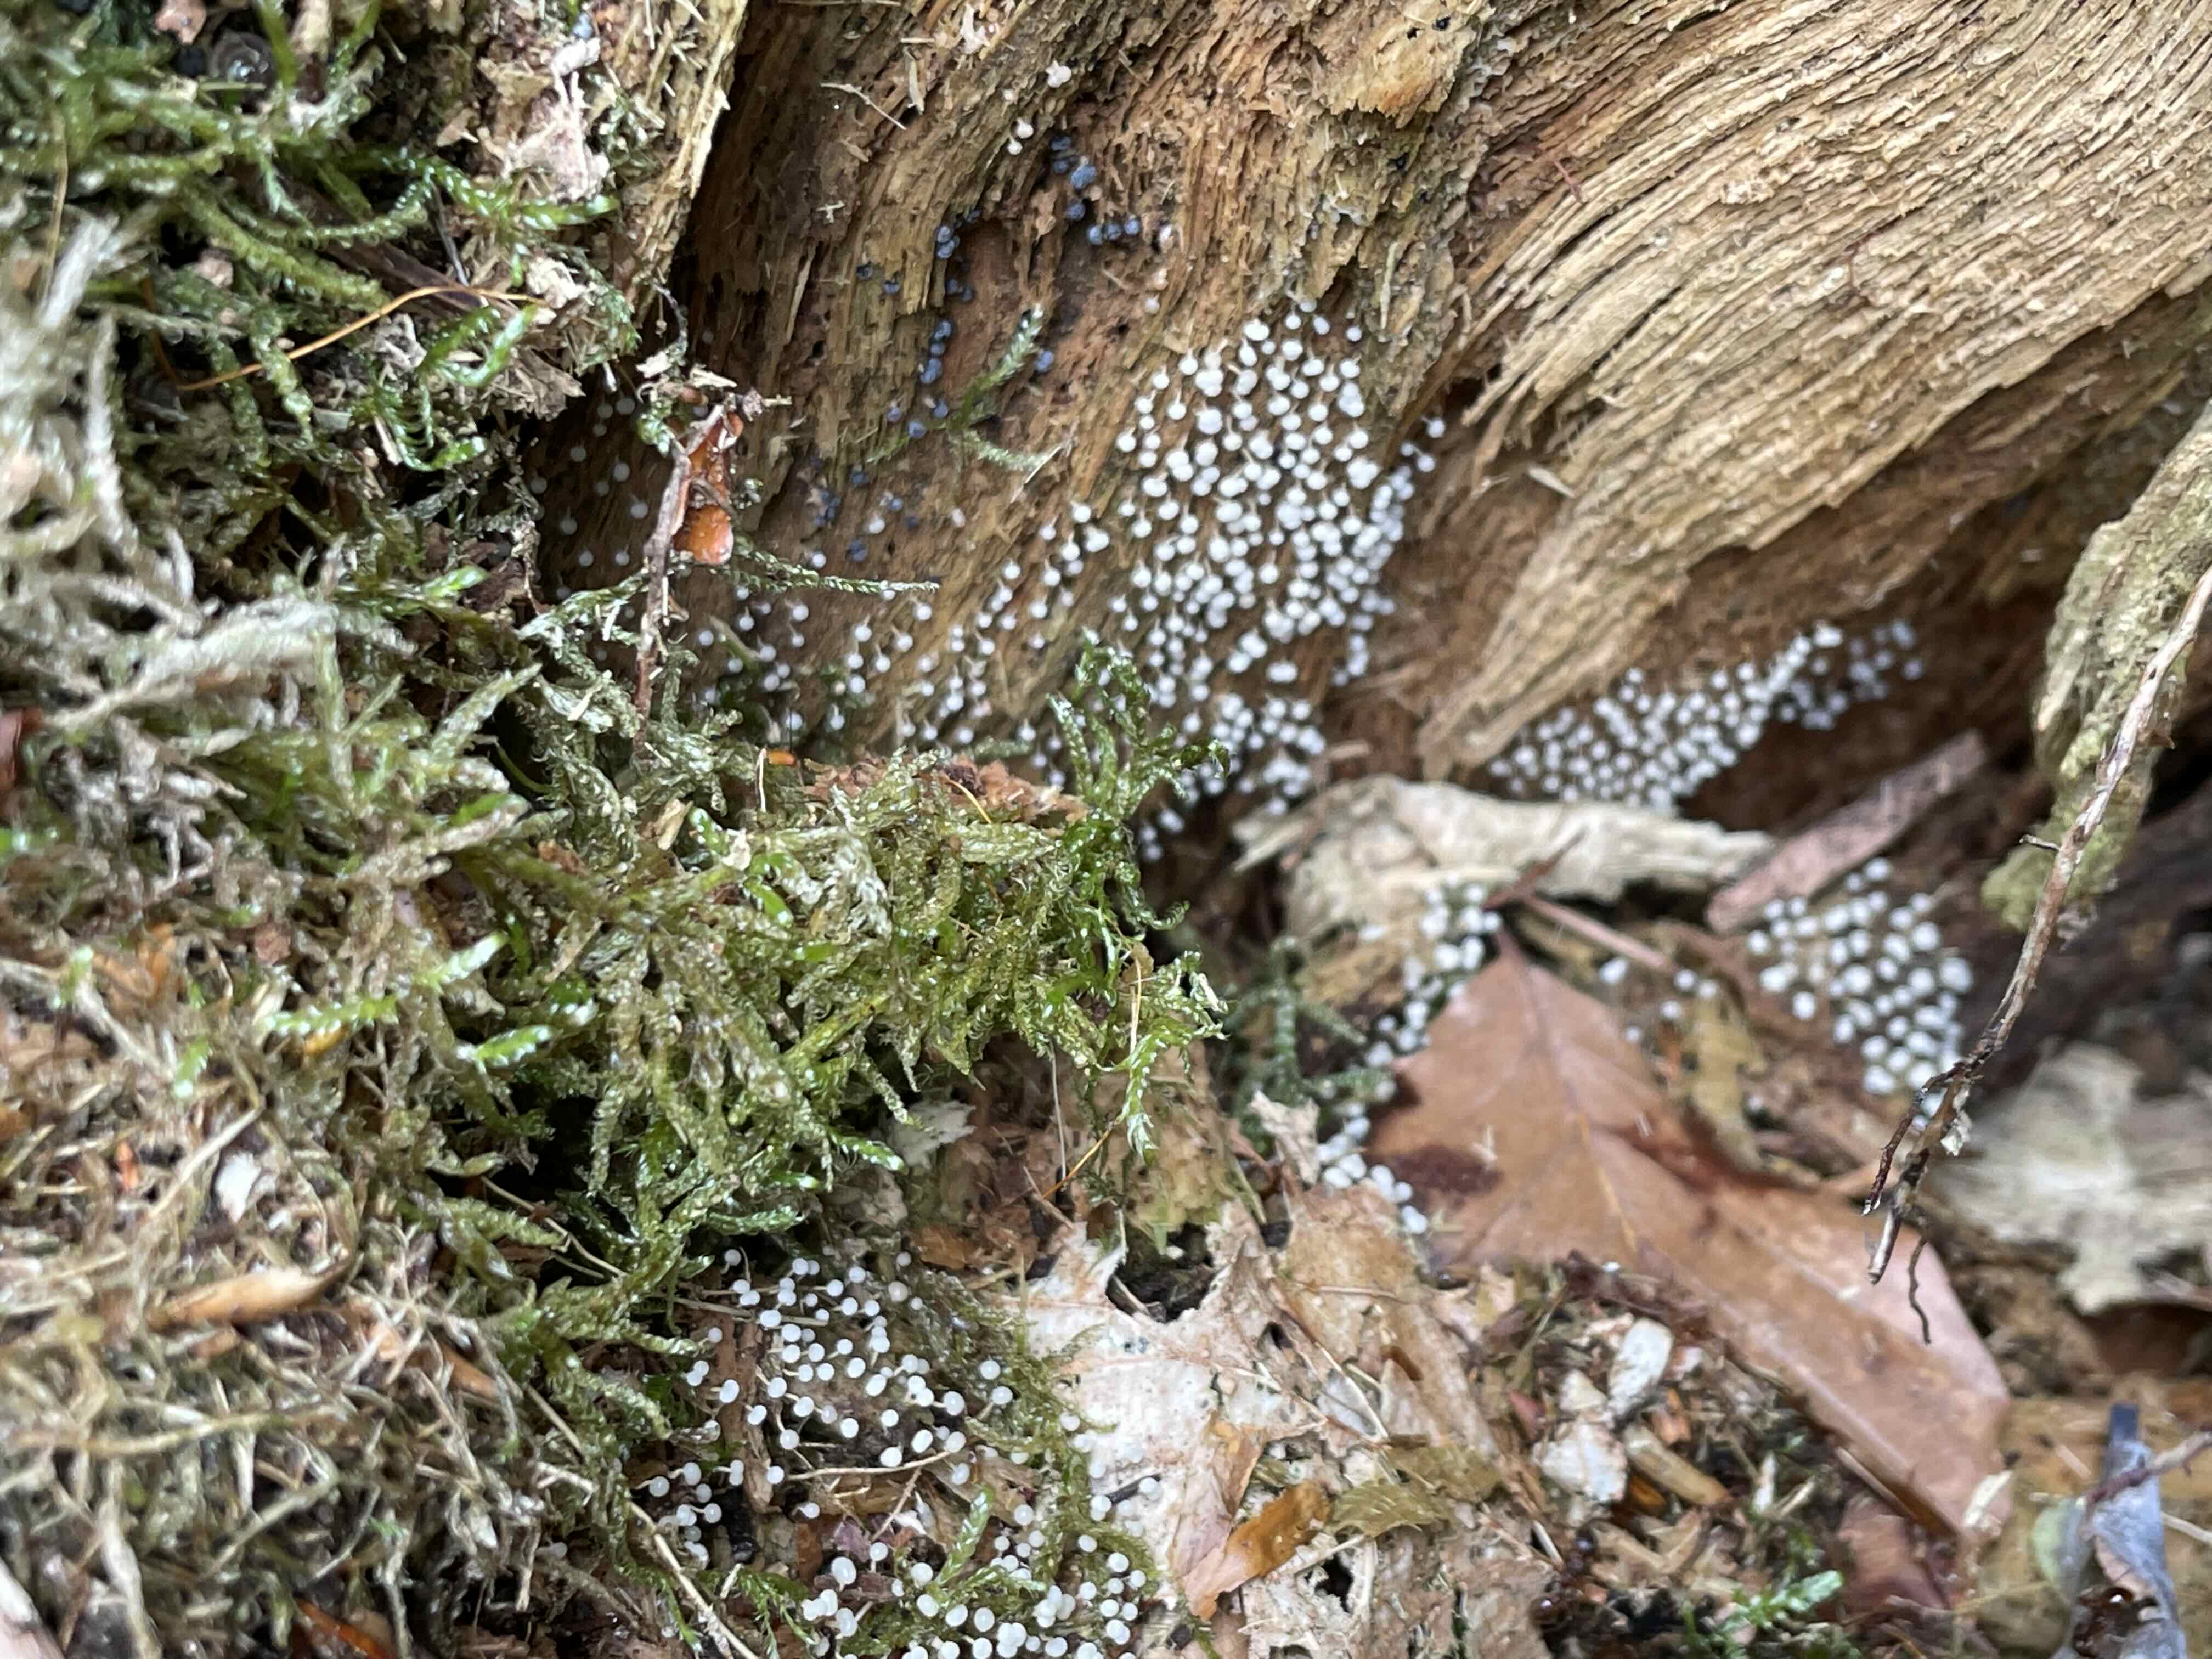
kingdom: Protozoa
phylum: Mycetozoa
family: Didymiidae
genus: Didymium
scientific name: Didymium
